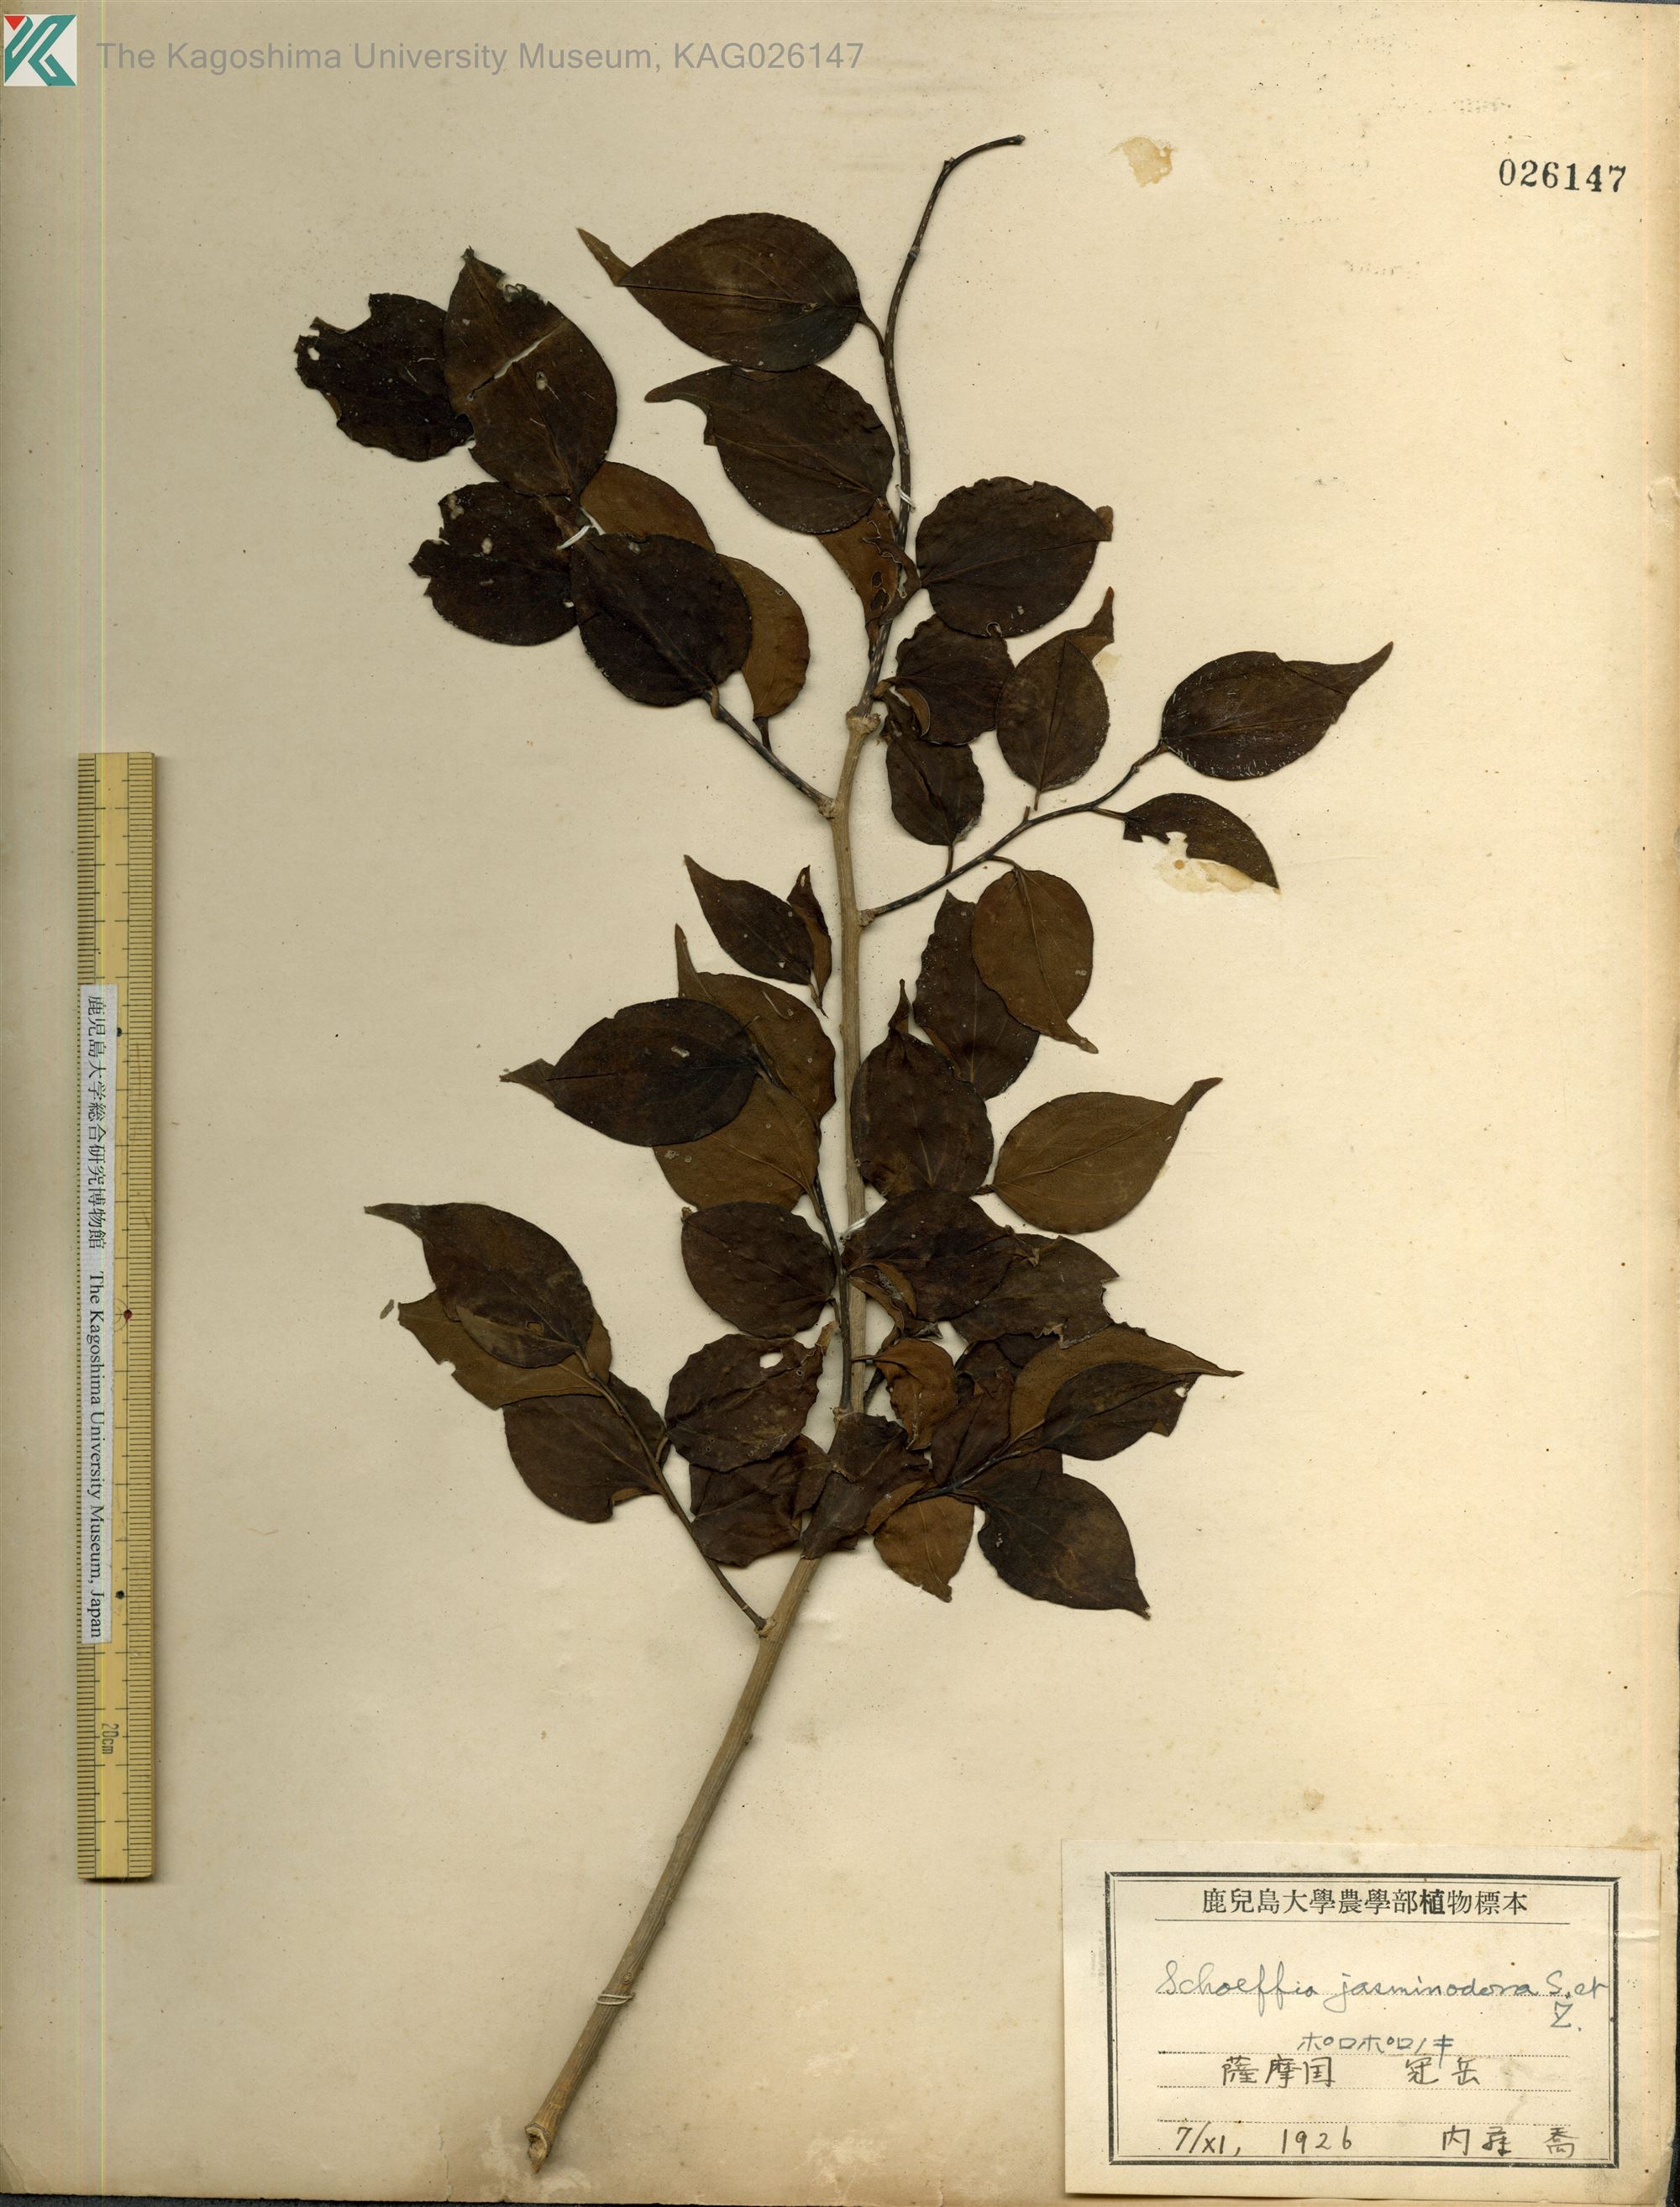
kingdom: Plantae
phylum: Tracheophyta
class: Magnoliopsida
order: Santalales
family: Schoepfiaceae
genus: Schoepfia
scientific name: Schoepfia jasminodora
